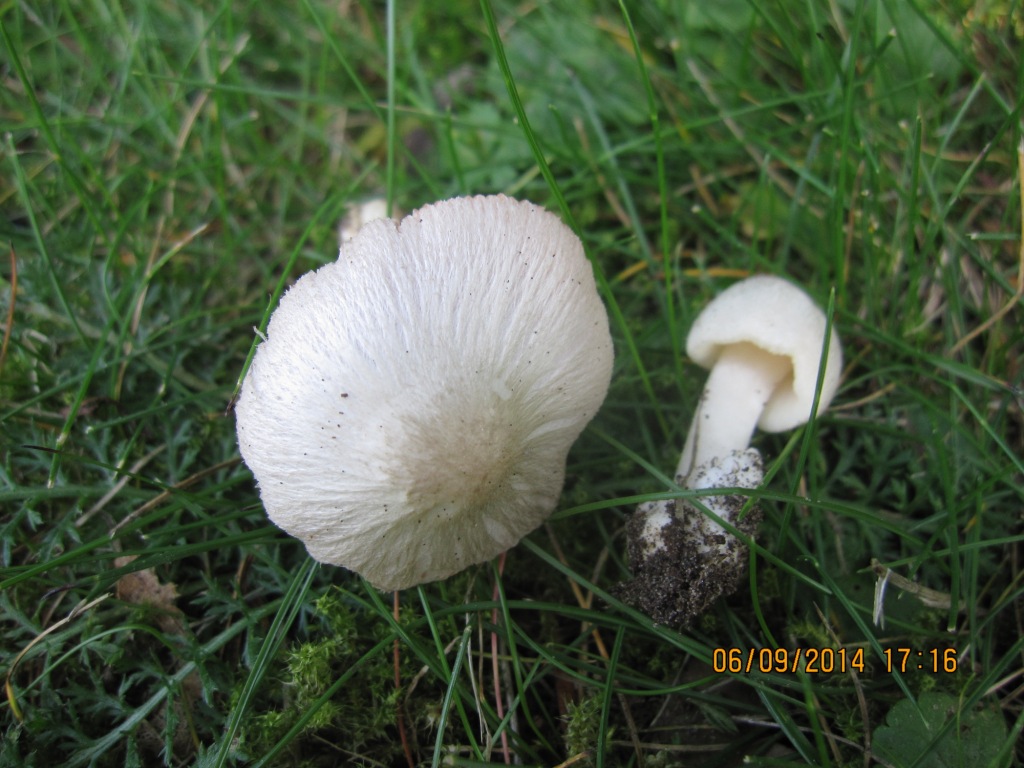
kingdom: Fungi
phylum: Basidiomycota
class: Agaricomycetes
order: Agaricales
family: Pluteaceae
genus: Volvariella
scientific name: Volvariella murinella
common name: musegrå posesvamp
